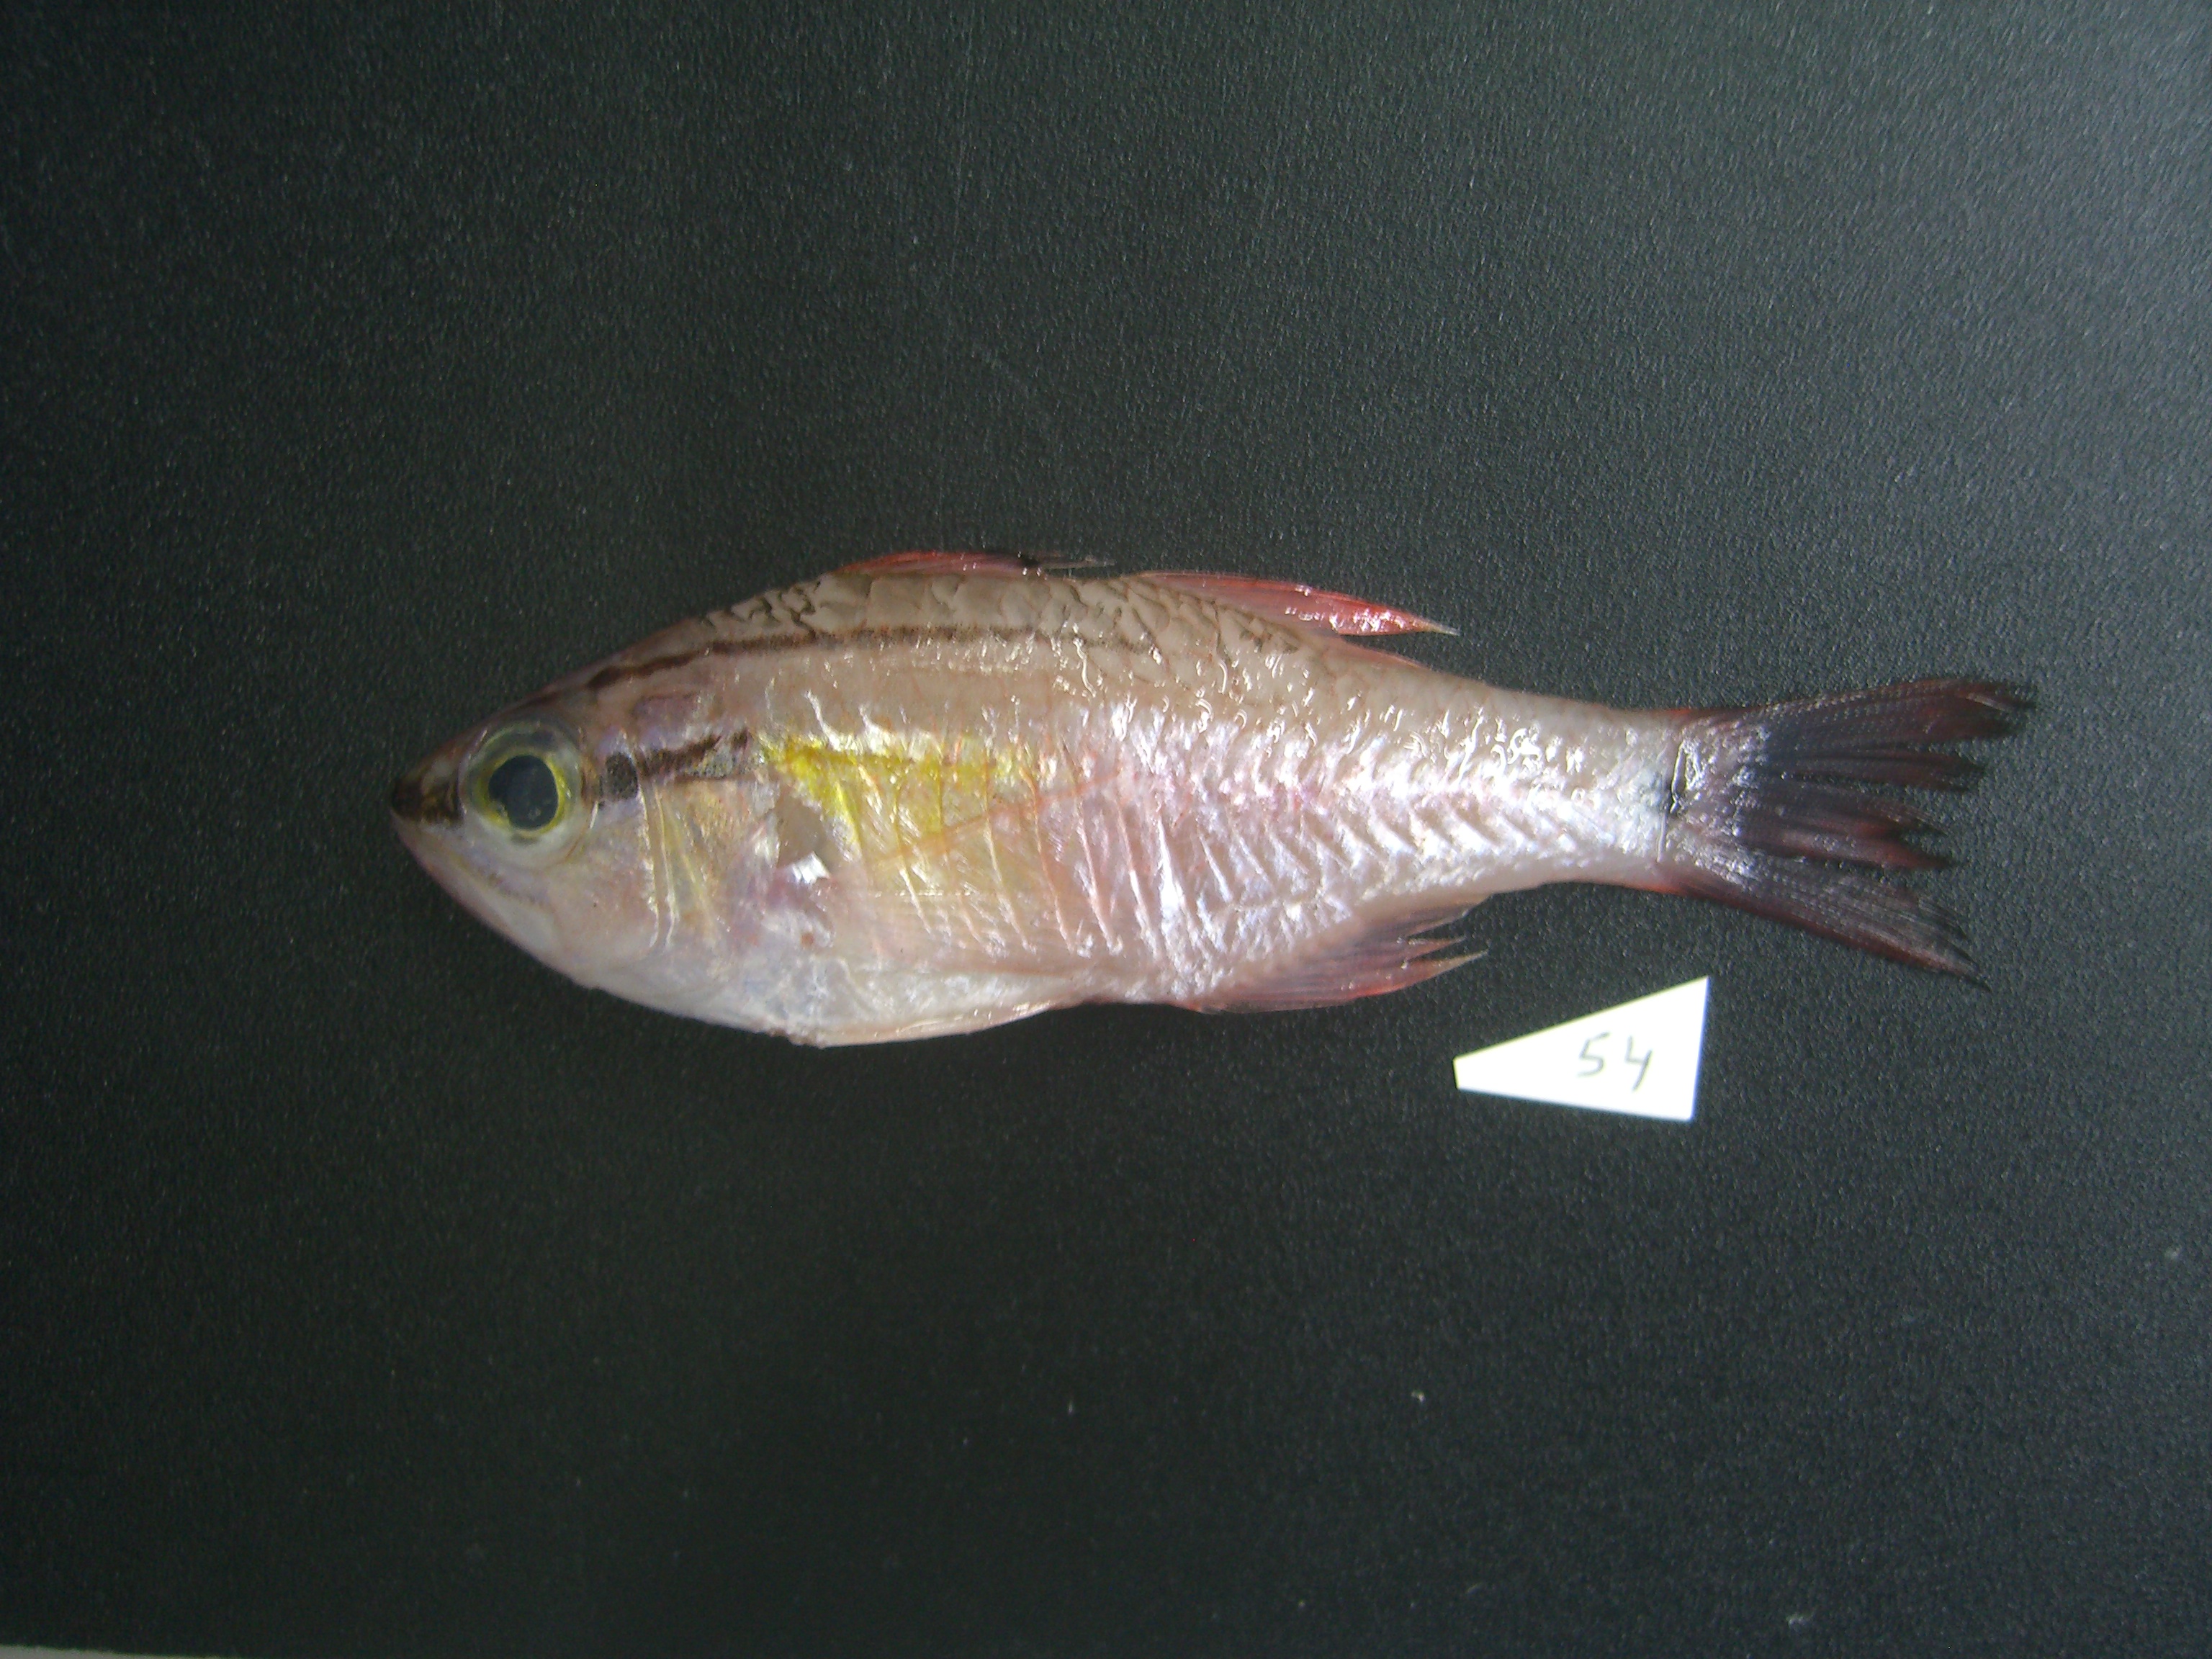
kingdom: Animalia
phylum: Chordata
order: Perciformes
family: Apogonidae
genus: Ostorhinchus
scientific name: Ostorhinchus semilineatus
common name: Half-lined cardinal
